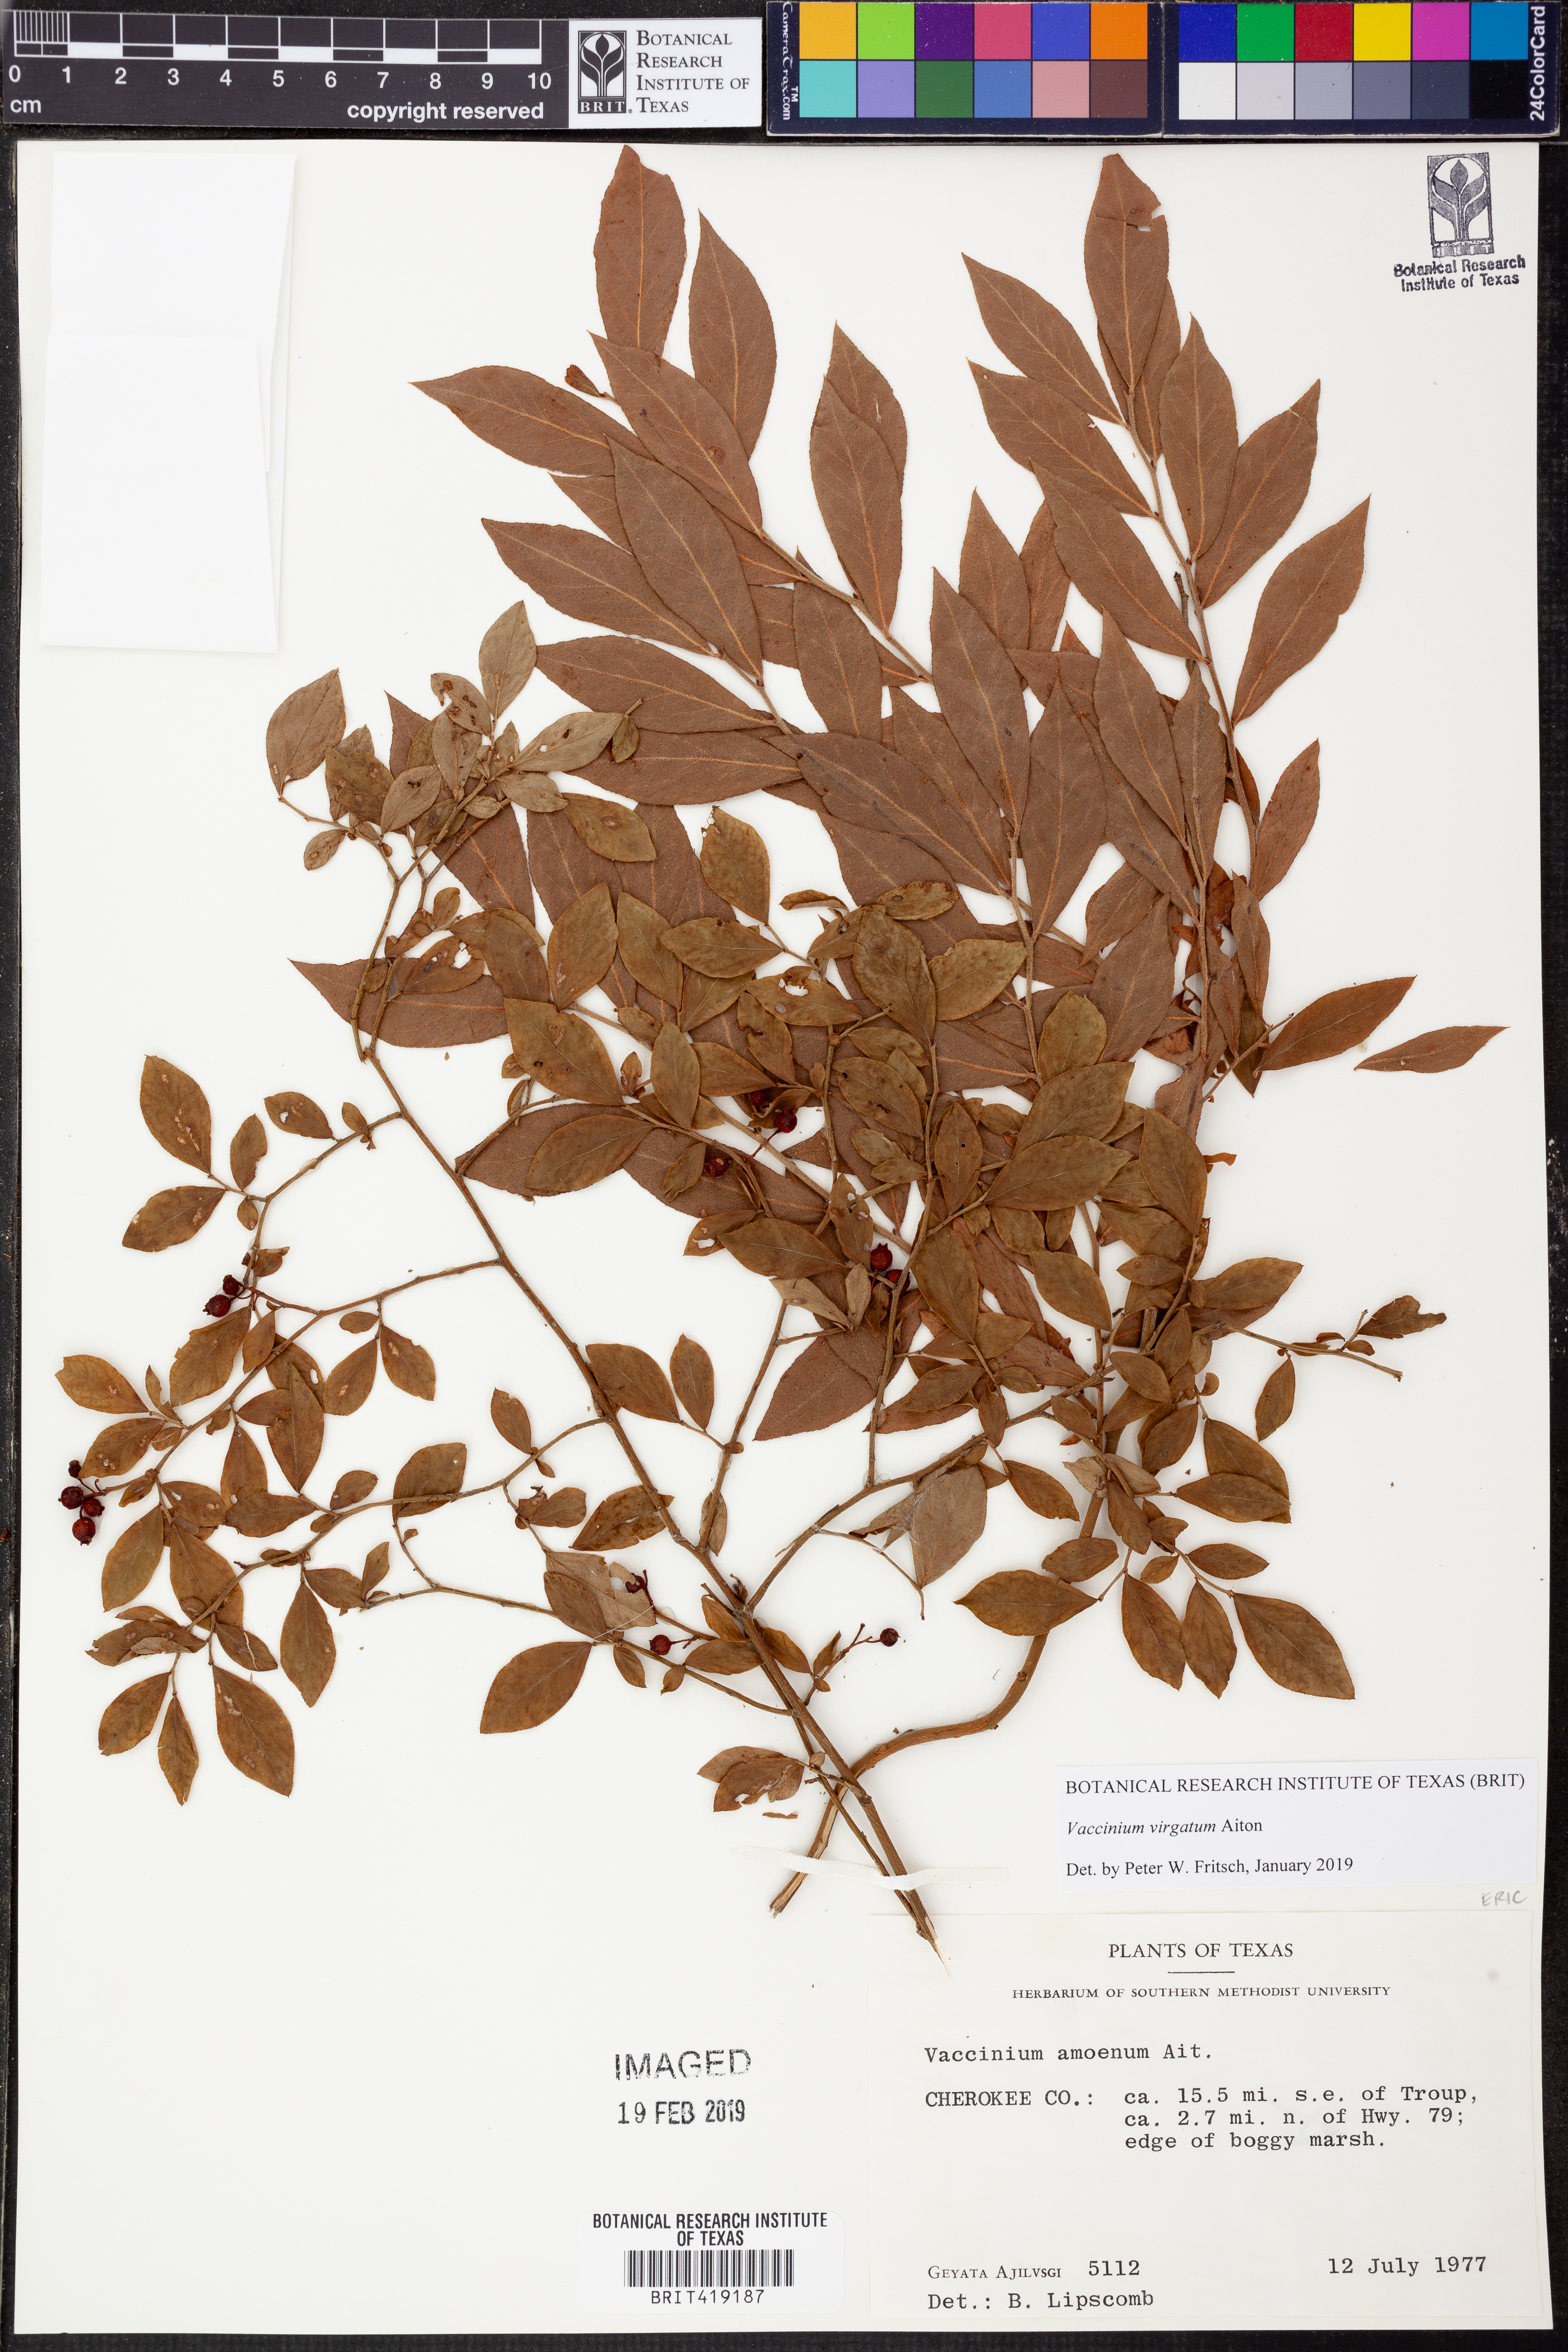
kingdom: Plantae
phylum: Tracheophyta
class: Magnoliopsida
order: Ericales
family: Ericaceae
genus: Vaccinium
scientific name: Vaccinium corymbosum
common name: Blueberry
